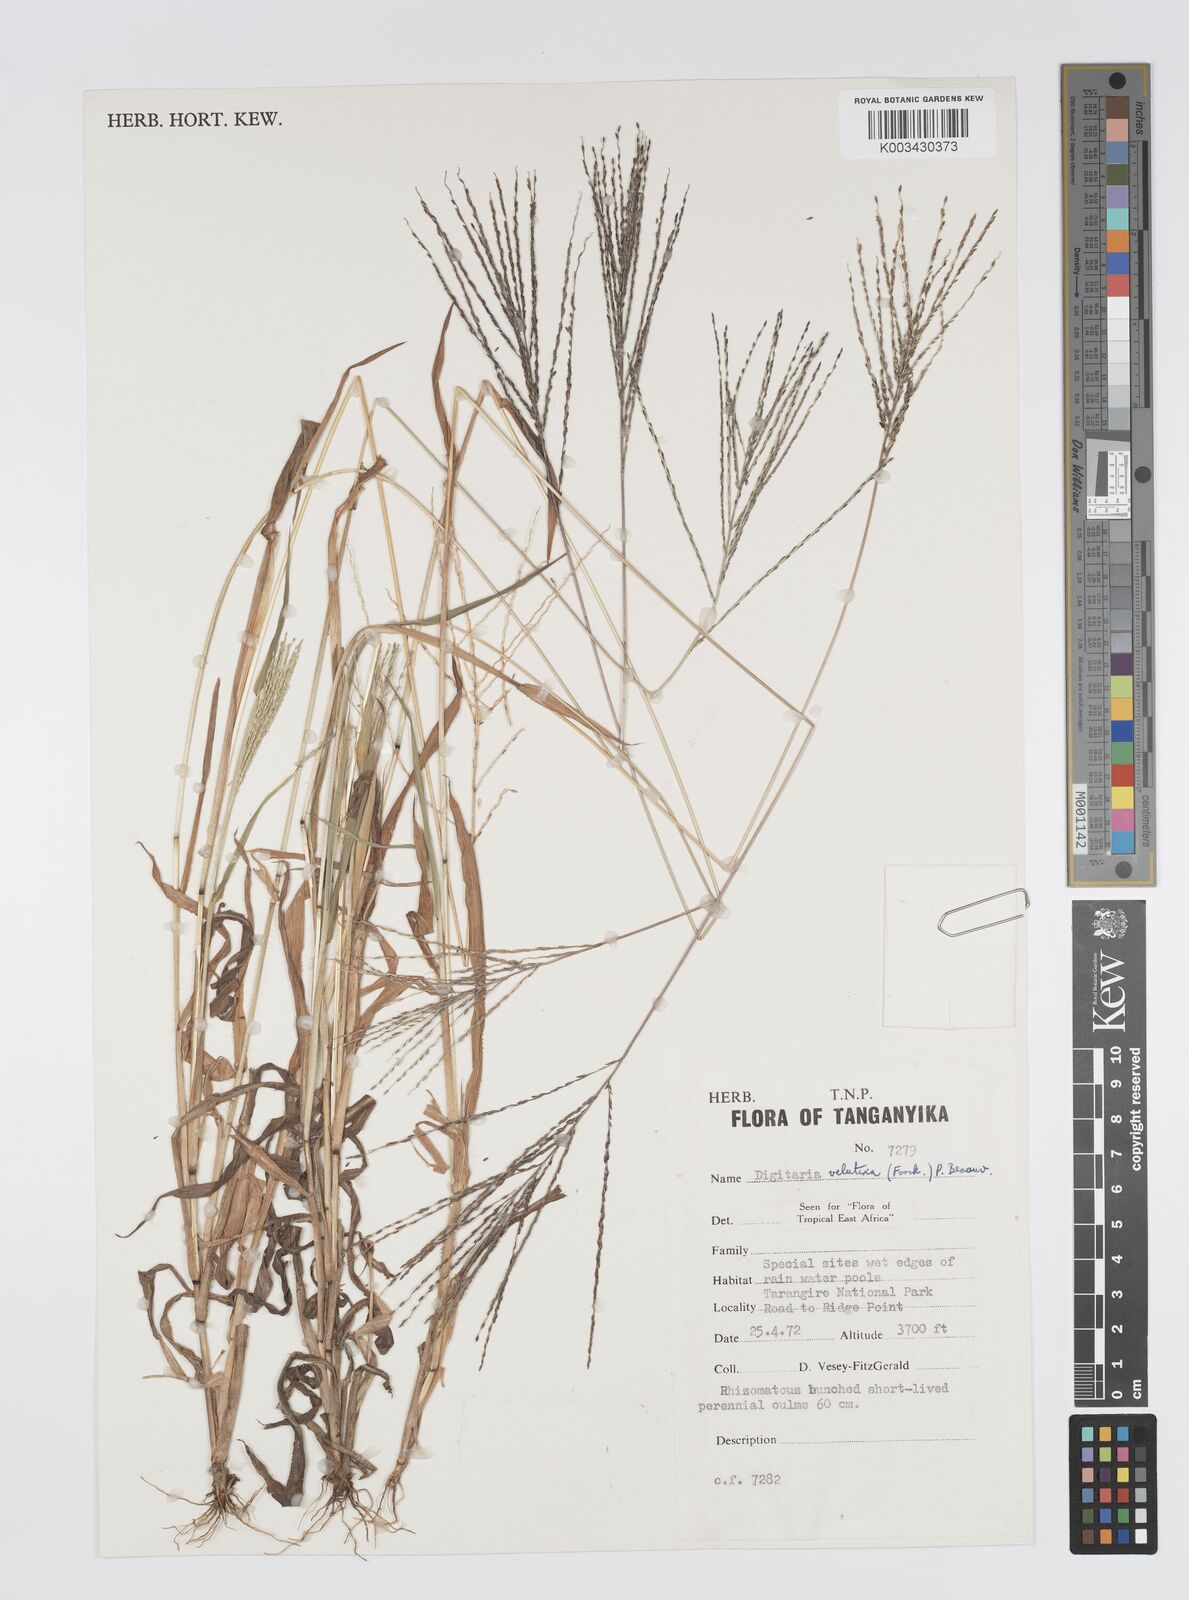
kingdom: Plantae
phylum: Tracheophyta
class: Liliopsida
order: Poales
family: Poaceae
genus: Digitaria
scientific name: Digitaria velutina
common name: Long-plume finger grass
